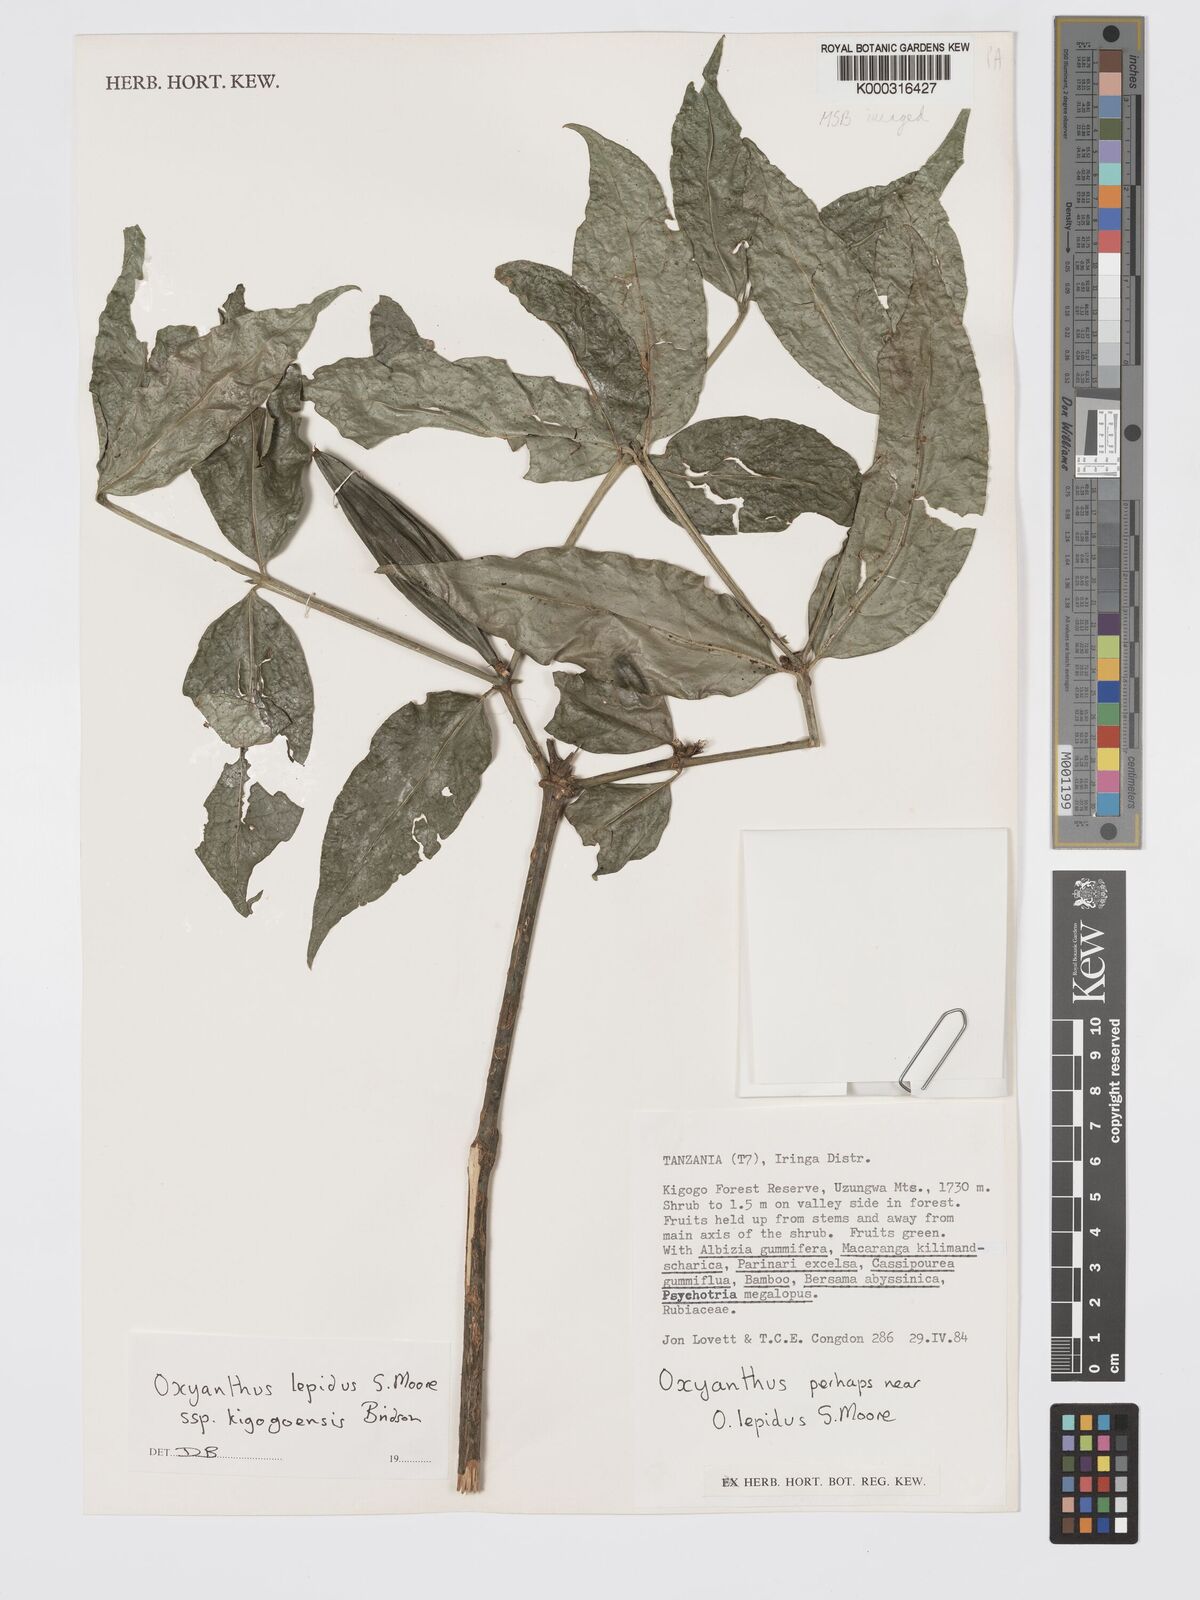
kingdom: Plantae
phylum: Tracheophyta
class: Magnoliopsida
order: Gentianales
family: Rubiaceae
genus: Oxyanthus
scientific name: Oxyanthus lepidus
